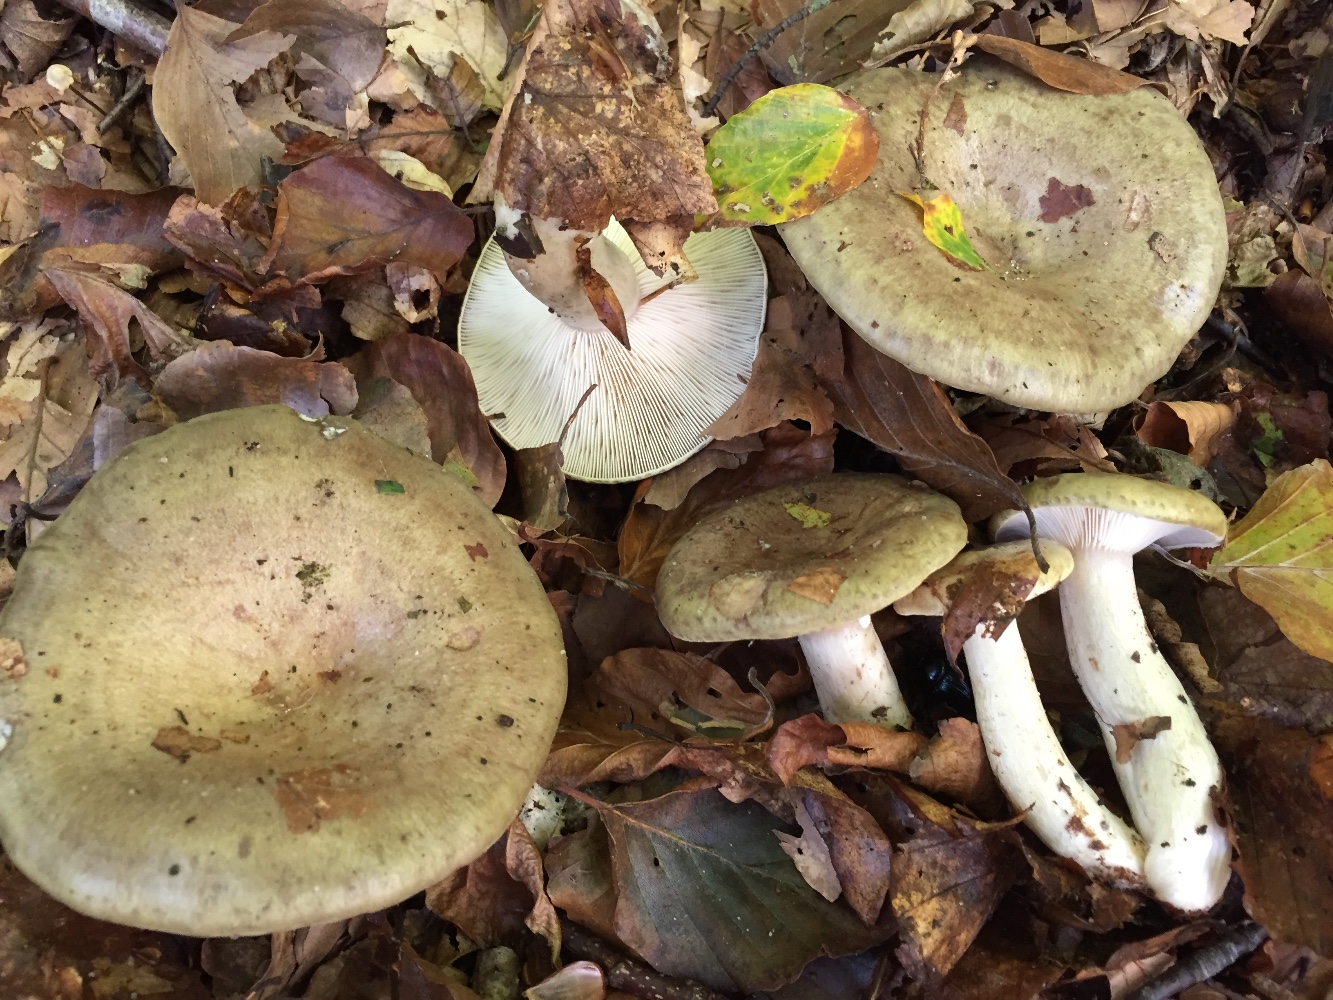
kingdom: Fungi
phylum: Basidiomycota
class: Agaricomycetes
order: Russulales
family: Russulaceae
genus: Lactarius
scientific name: Lactarius blennius
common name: dråbeplettet mælkehat
